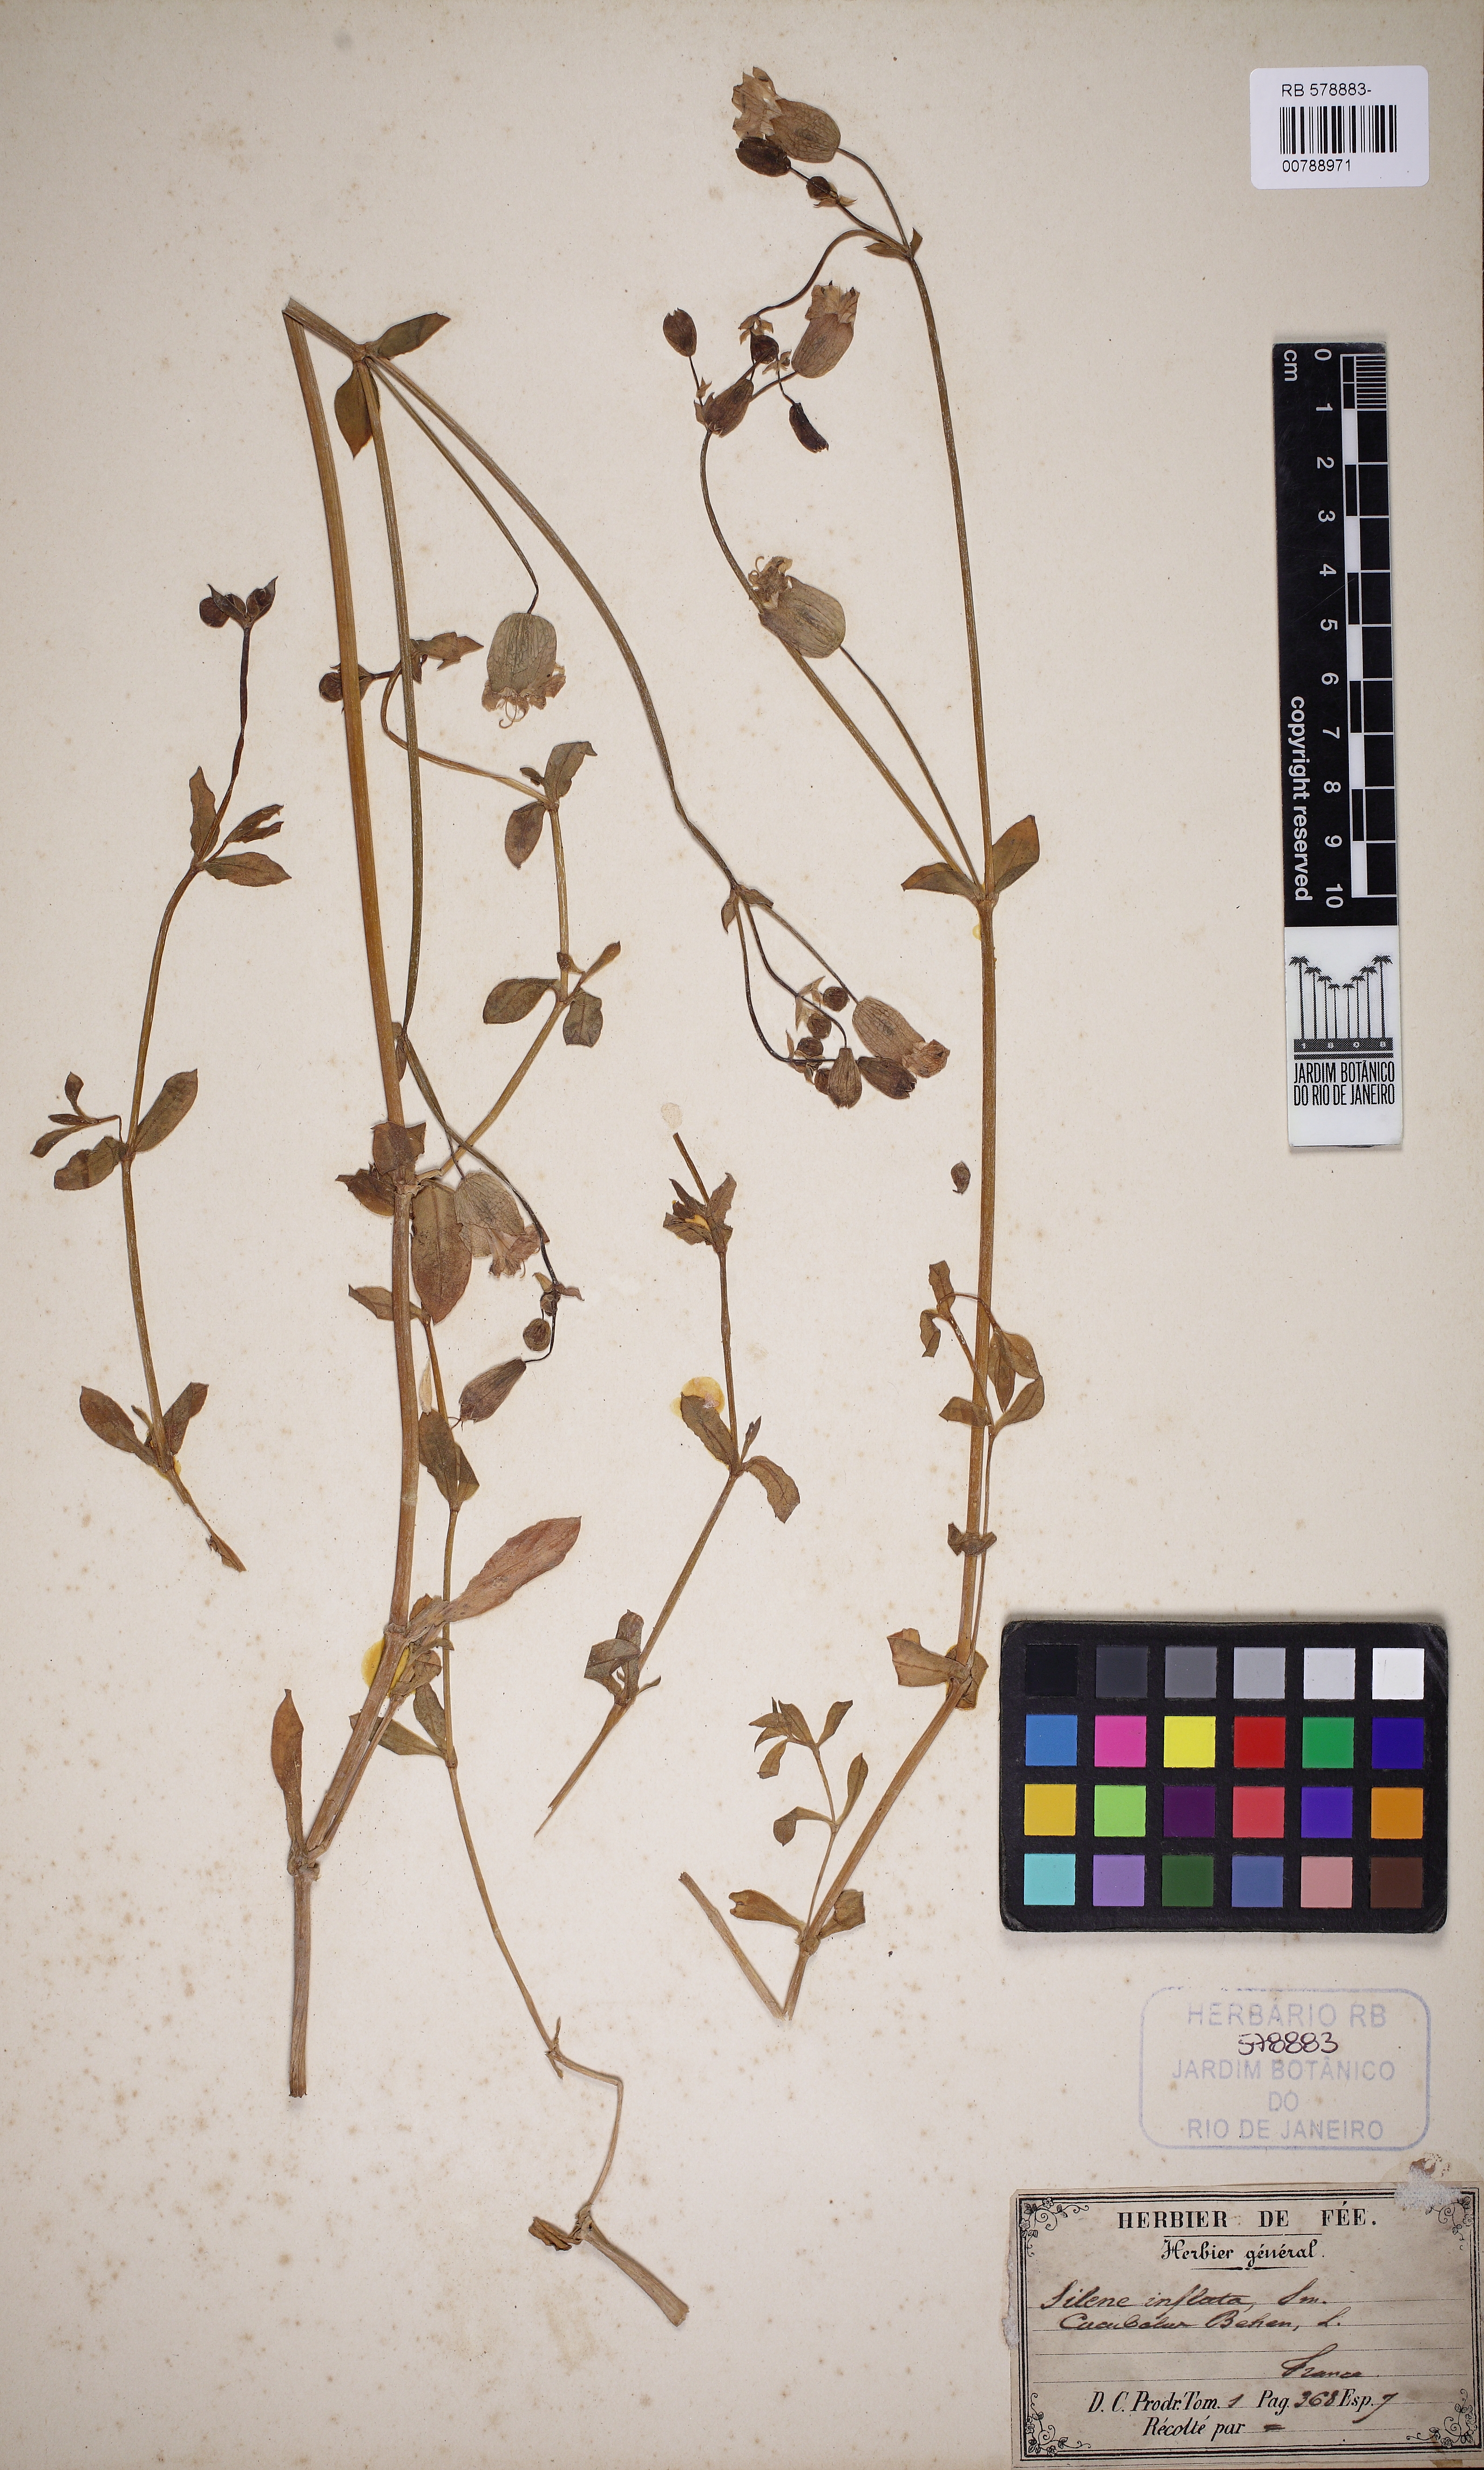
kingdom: Plantae
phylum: Tracheophyta
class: Magnoliopsida
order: Caryophyllales
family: Caryophyllaceae
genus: Silene
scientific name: Silene vulgaris
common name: Bladder campion
